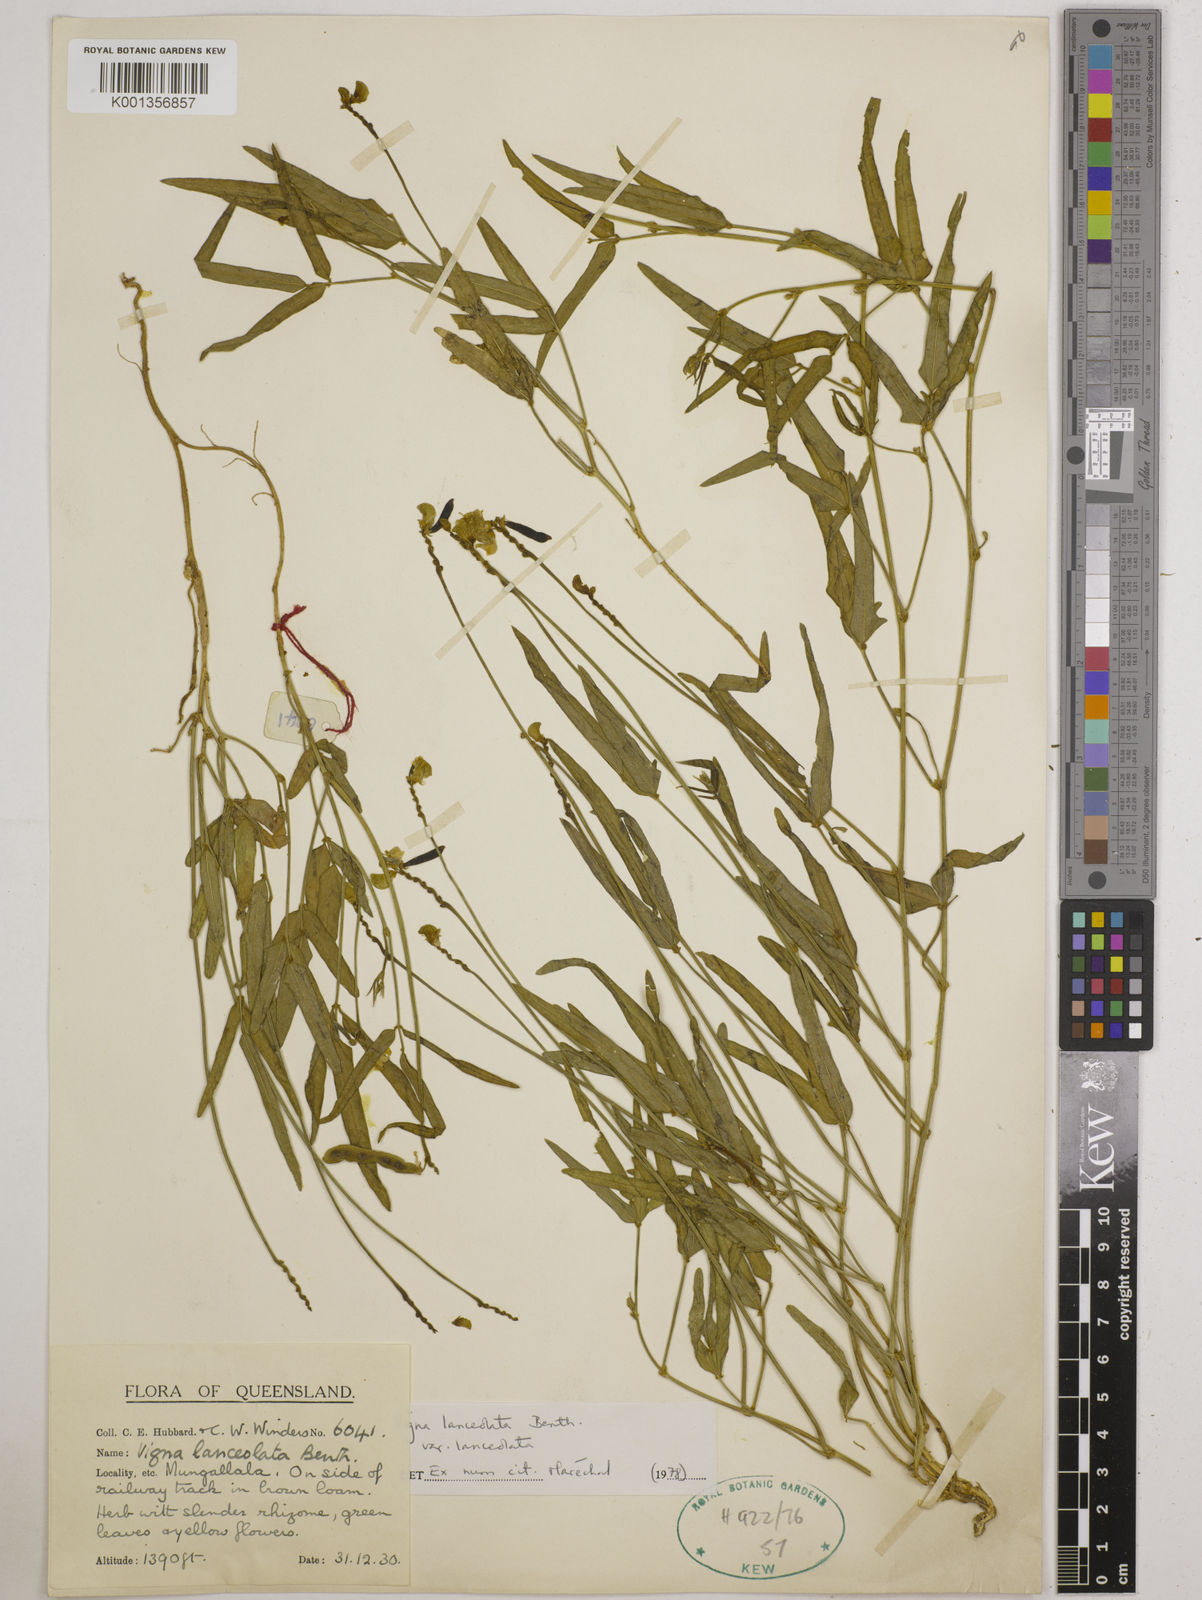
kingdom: Plantae
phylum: Tracheophyta
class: Magnoliopsida
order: Fabales
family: Fabaceae
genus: Vigna
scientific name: Vigna lanceolata
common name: Maloga-bean
